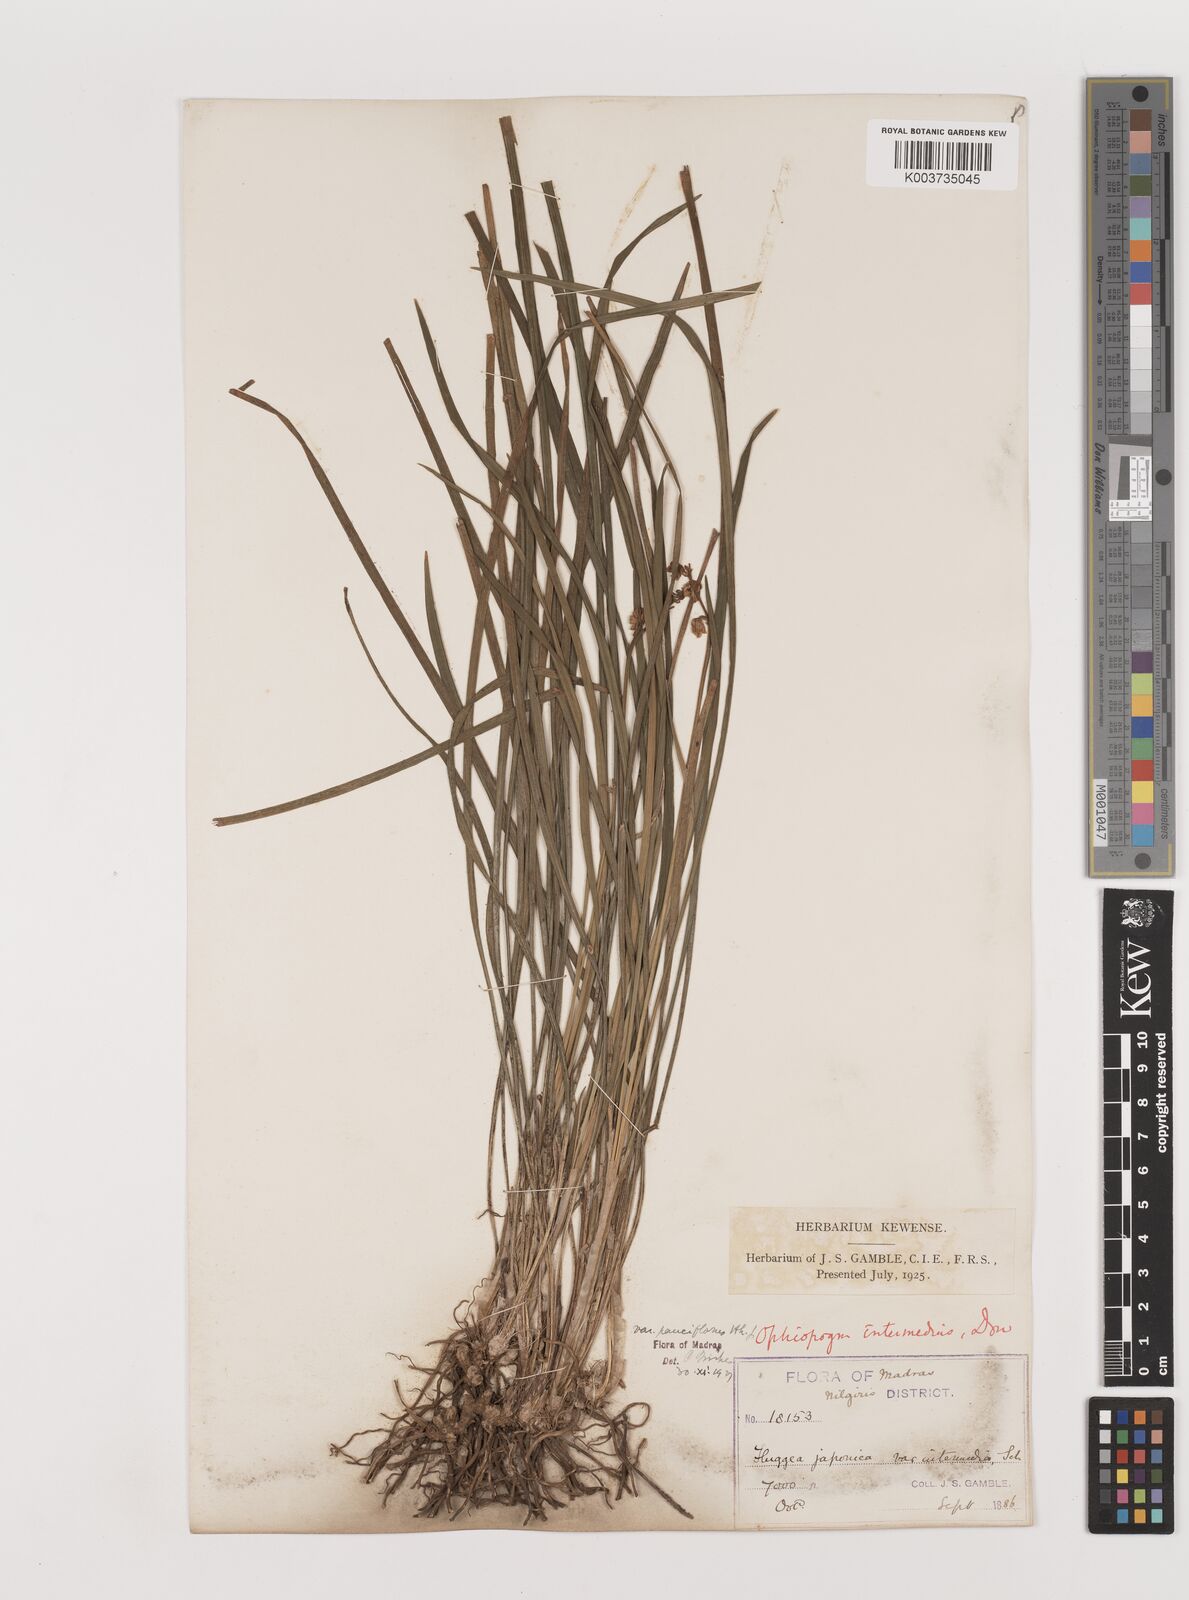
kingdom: Plantae
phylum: Tracheophyta
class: Liliopsida
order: Asparagales
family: Asparagaceae
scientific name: Asparagaceae
